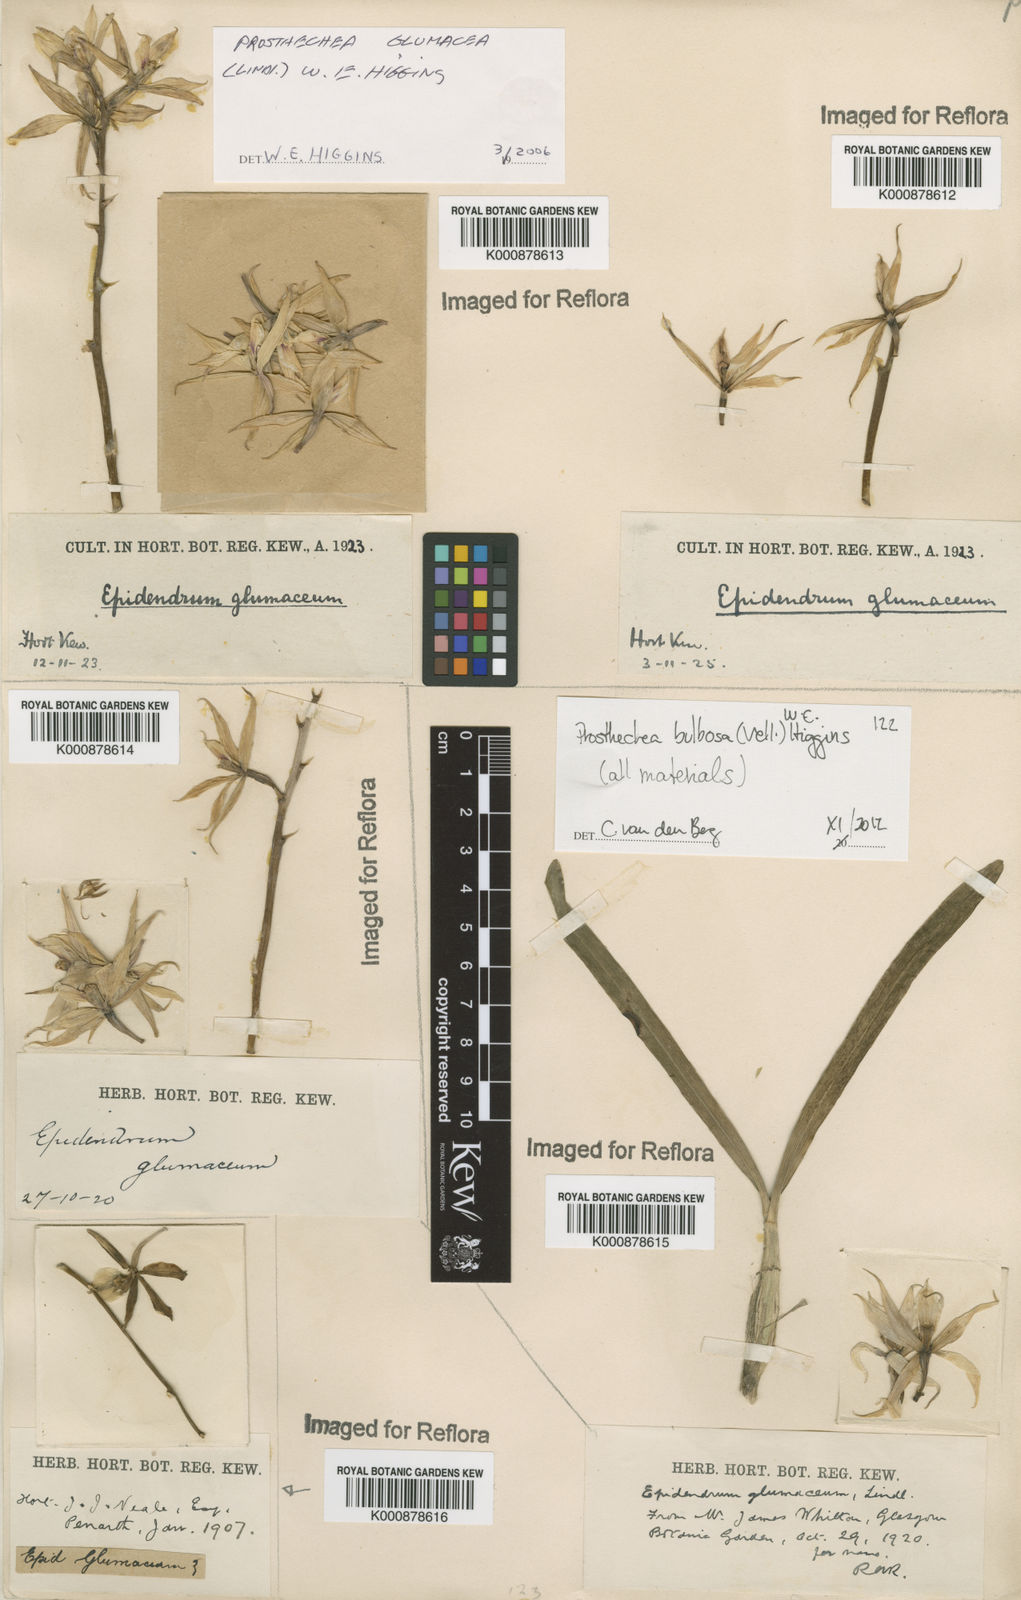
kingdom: Plantae
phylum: Tracheophyta
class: Liliopsida
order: Asparagales
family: Orchidaceae
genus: Prosthechea
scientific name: Prosthechea bulbosa
